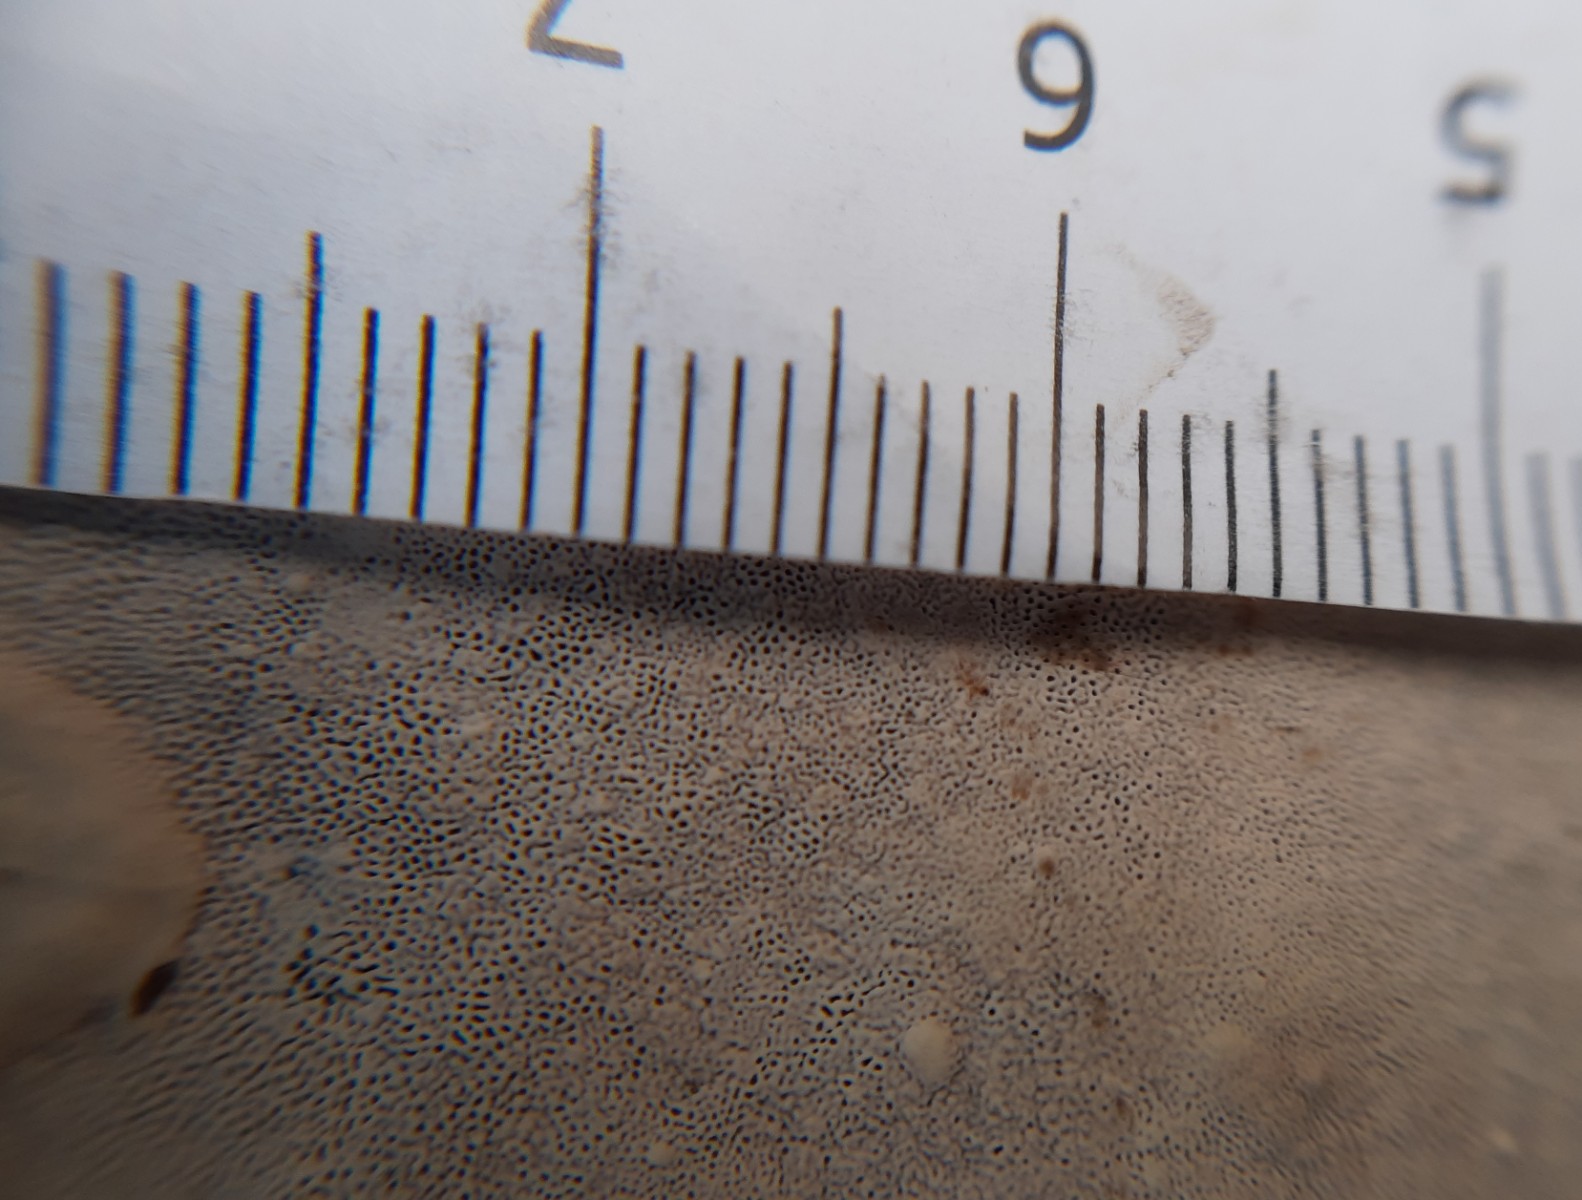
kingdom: Fungi
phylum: Basidiomycota
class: Agaricomycetes
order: Polyporales
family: Polyporaceae
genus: Ganoderma
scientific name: Ganoderma applanatum
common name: flad lakporesvamp
